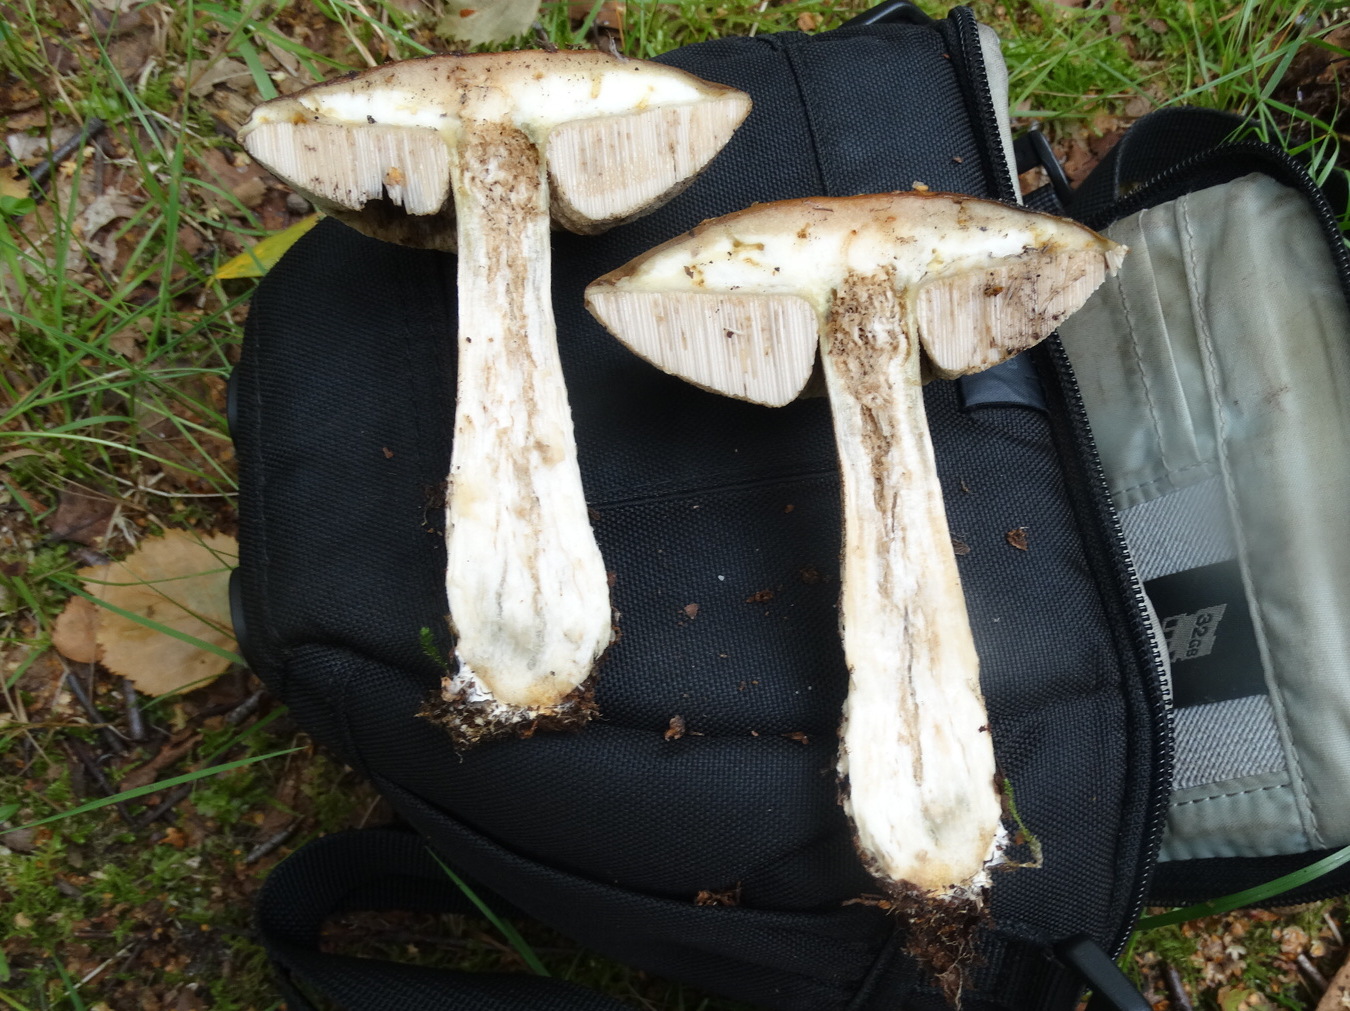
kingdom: Fungi
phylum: Basidiomycota
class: Agaricomycetes
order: Boletales
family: Boletaceae
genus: Leccinum
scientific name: Leccinum scabrum
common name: brun skælrørhat
